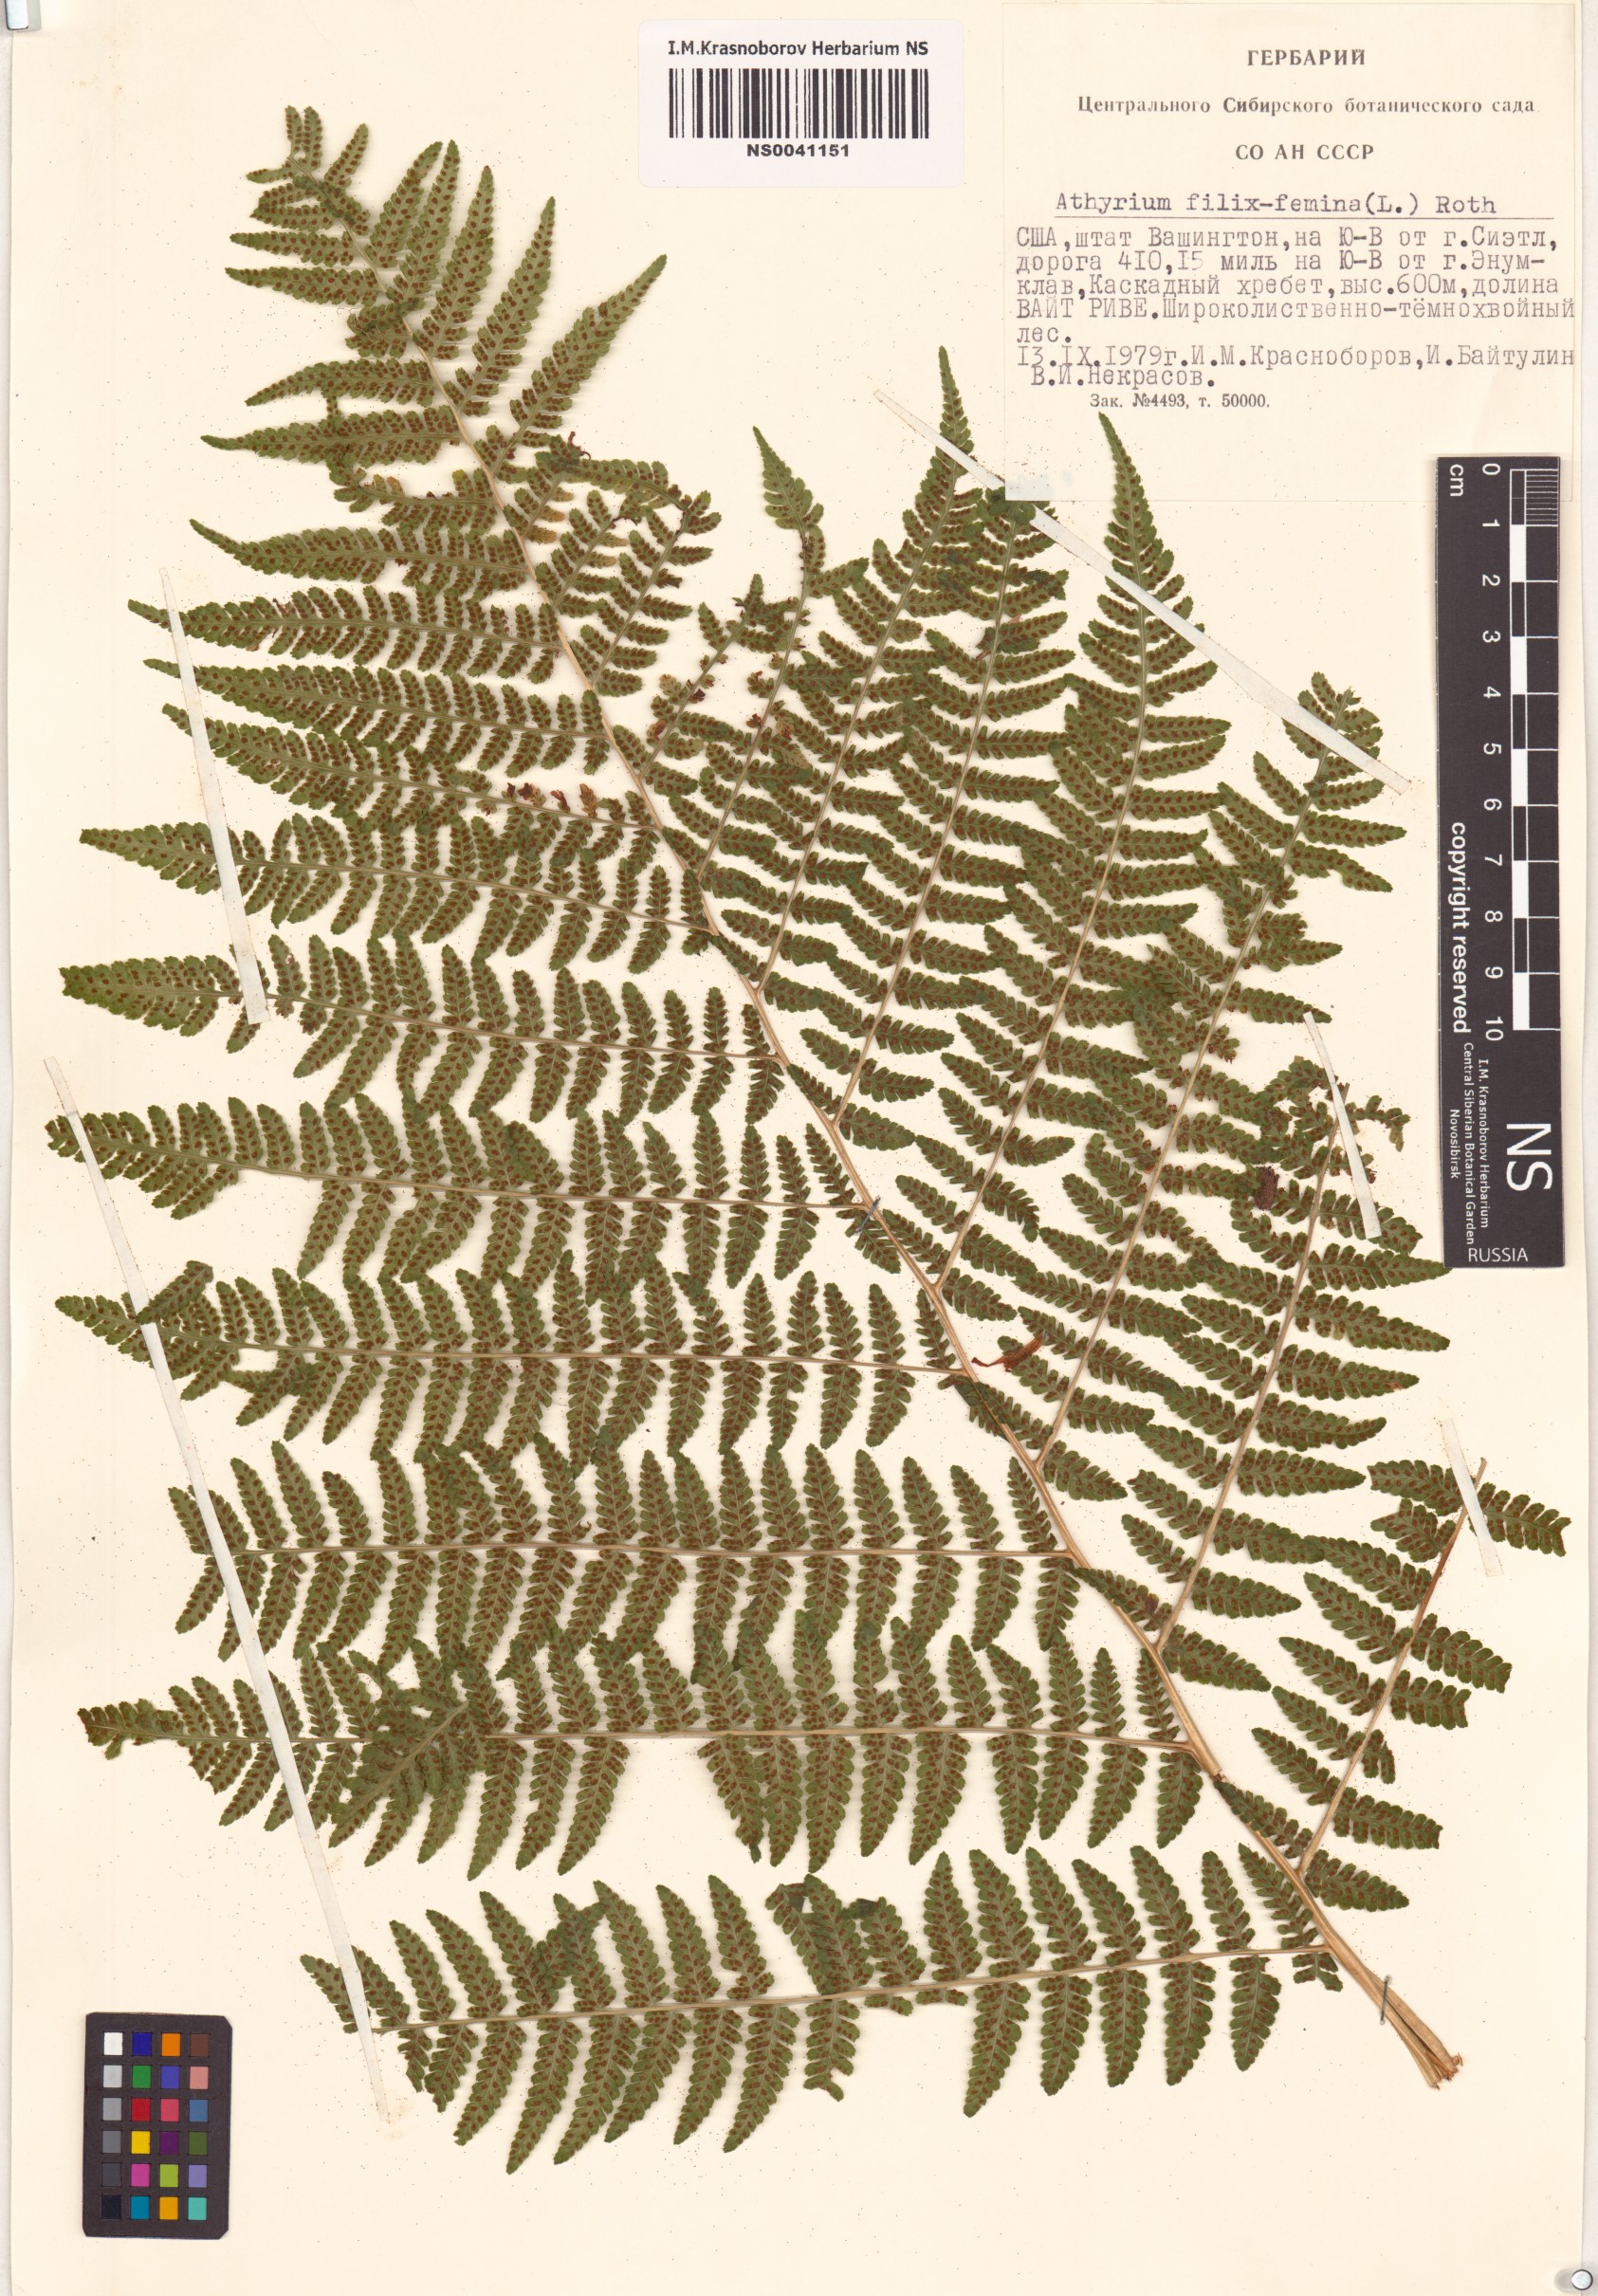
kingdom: Plantae
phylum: Tracheophyta
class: Polypodiopsida
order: Polypodiales
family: Athyriaceae
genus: Athyrium
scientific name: Athyrium filix-femina
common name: Lady fern
